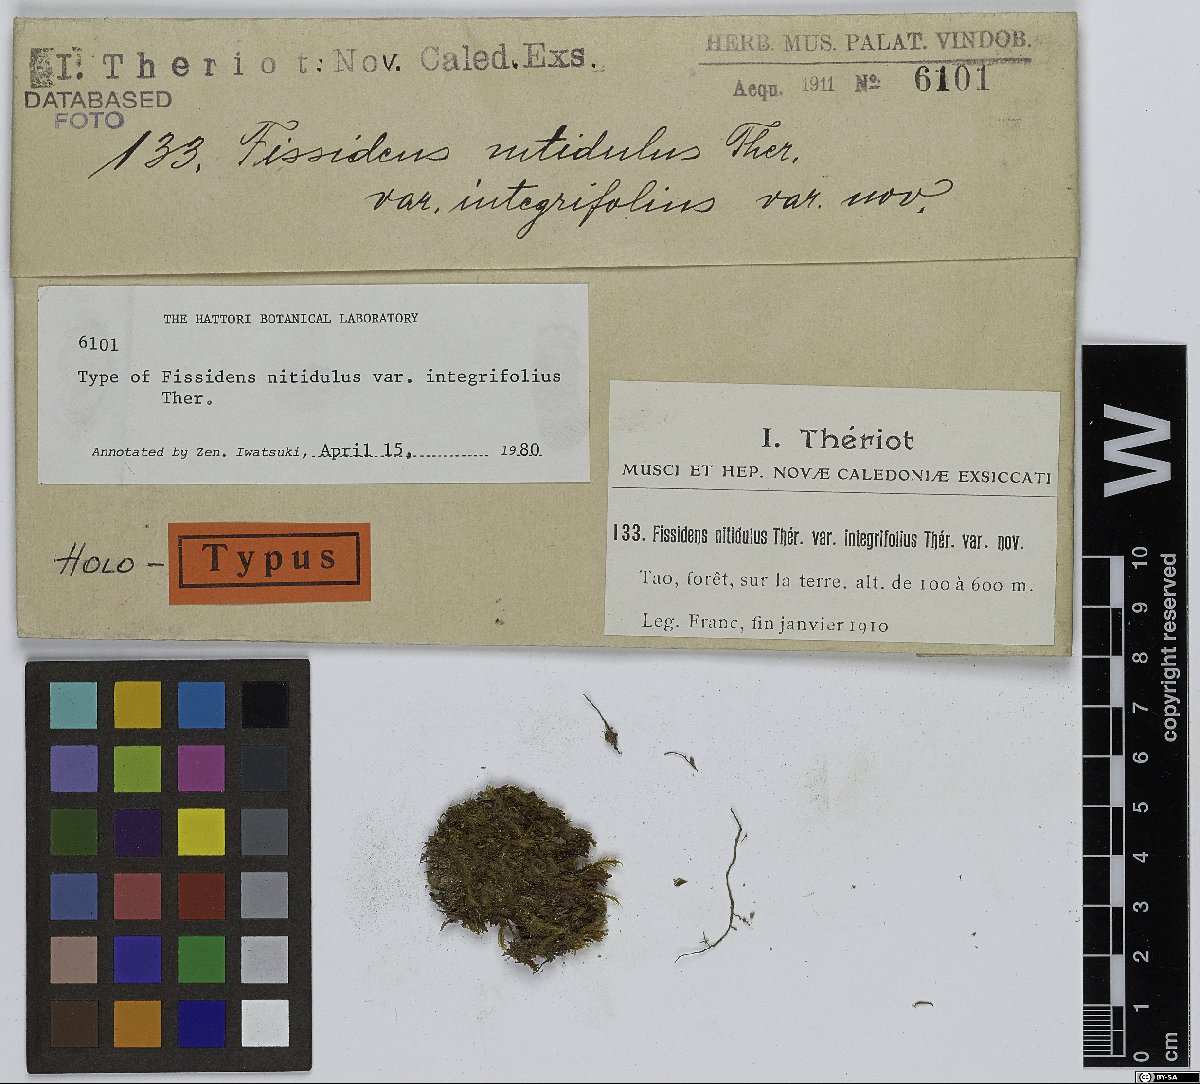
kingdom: Plantae
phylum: Bryophyta
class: Bryopsida
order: Dicranales
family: Fissidentaceae
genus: Fissidens
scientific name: Fissidens pallidus
